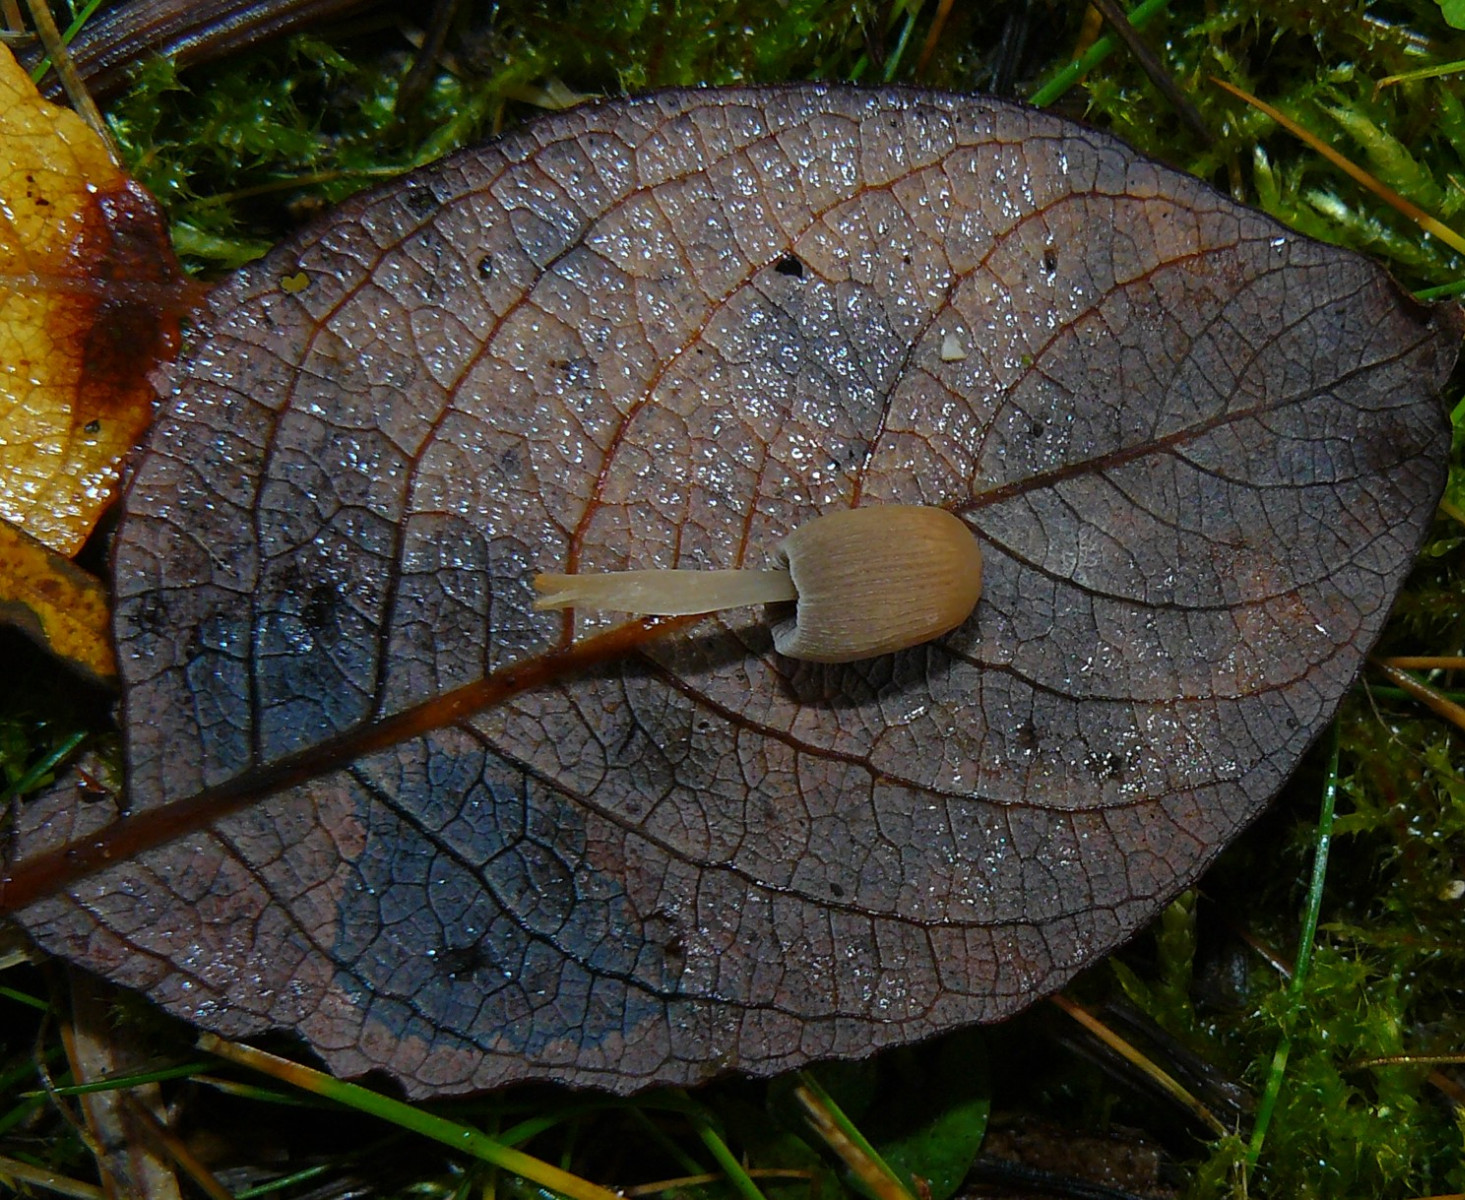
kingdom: Fungi
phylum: Basidiomycota
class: Agaricomycetes
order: Agaricales
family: Psathyrellaceae
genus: Parasola
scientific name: Parasola plicatilis
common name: plæne-hjulhat
